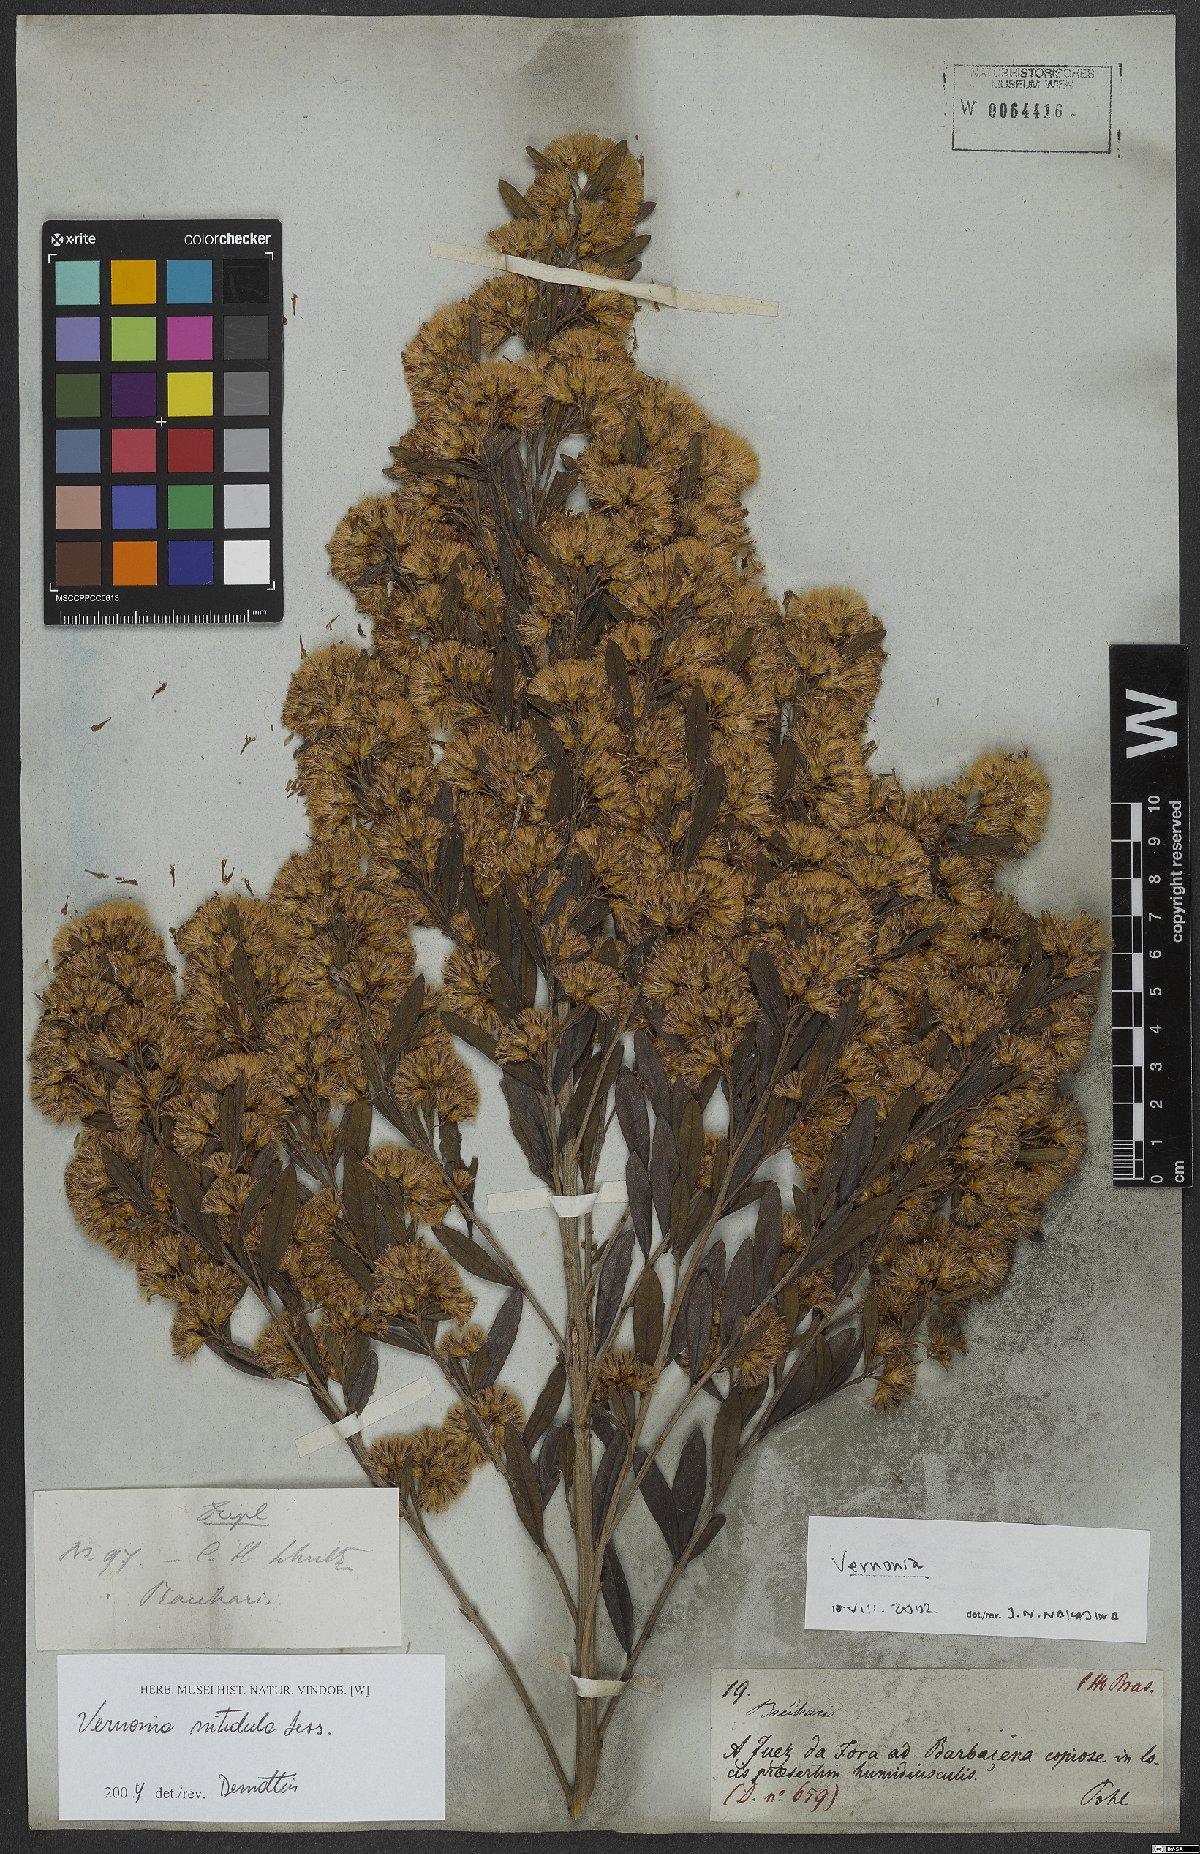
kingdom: Plantae
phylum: Tracheophyta
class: Magnoliopsida
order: Asterales
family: Asteraceae
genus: Vernonanthura
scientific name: Vernonanthura montevidensis
